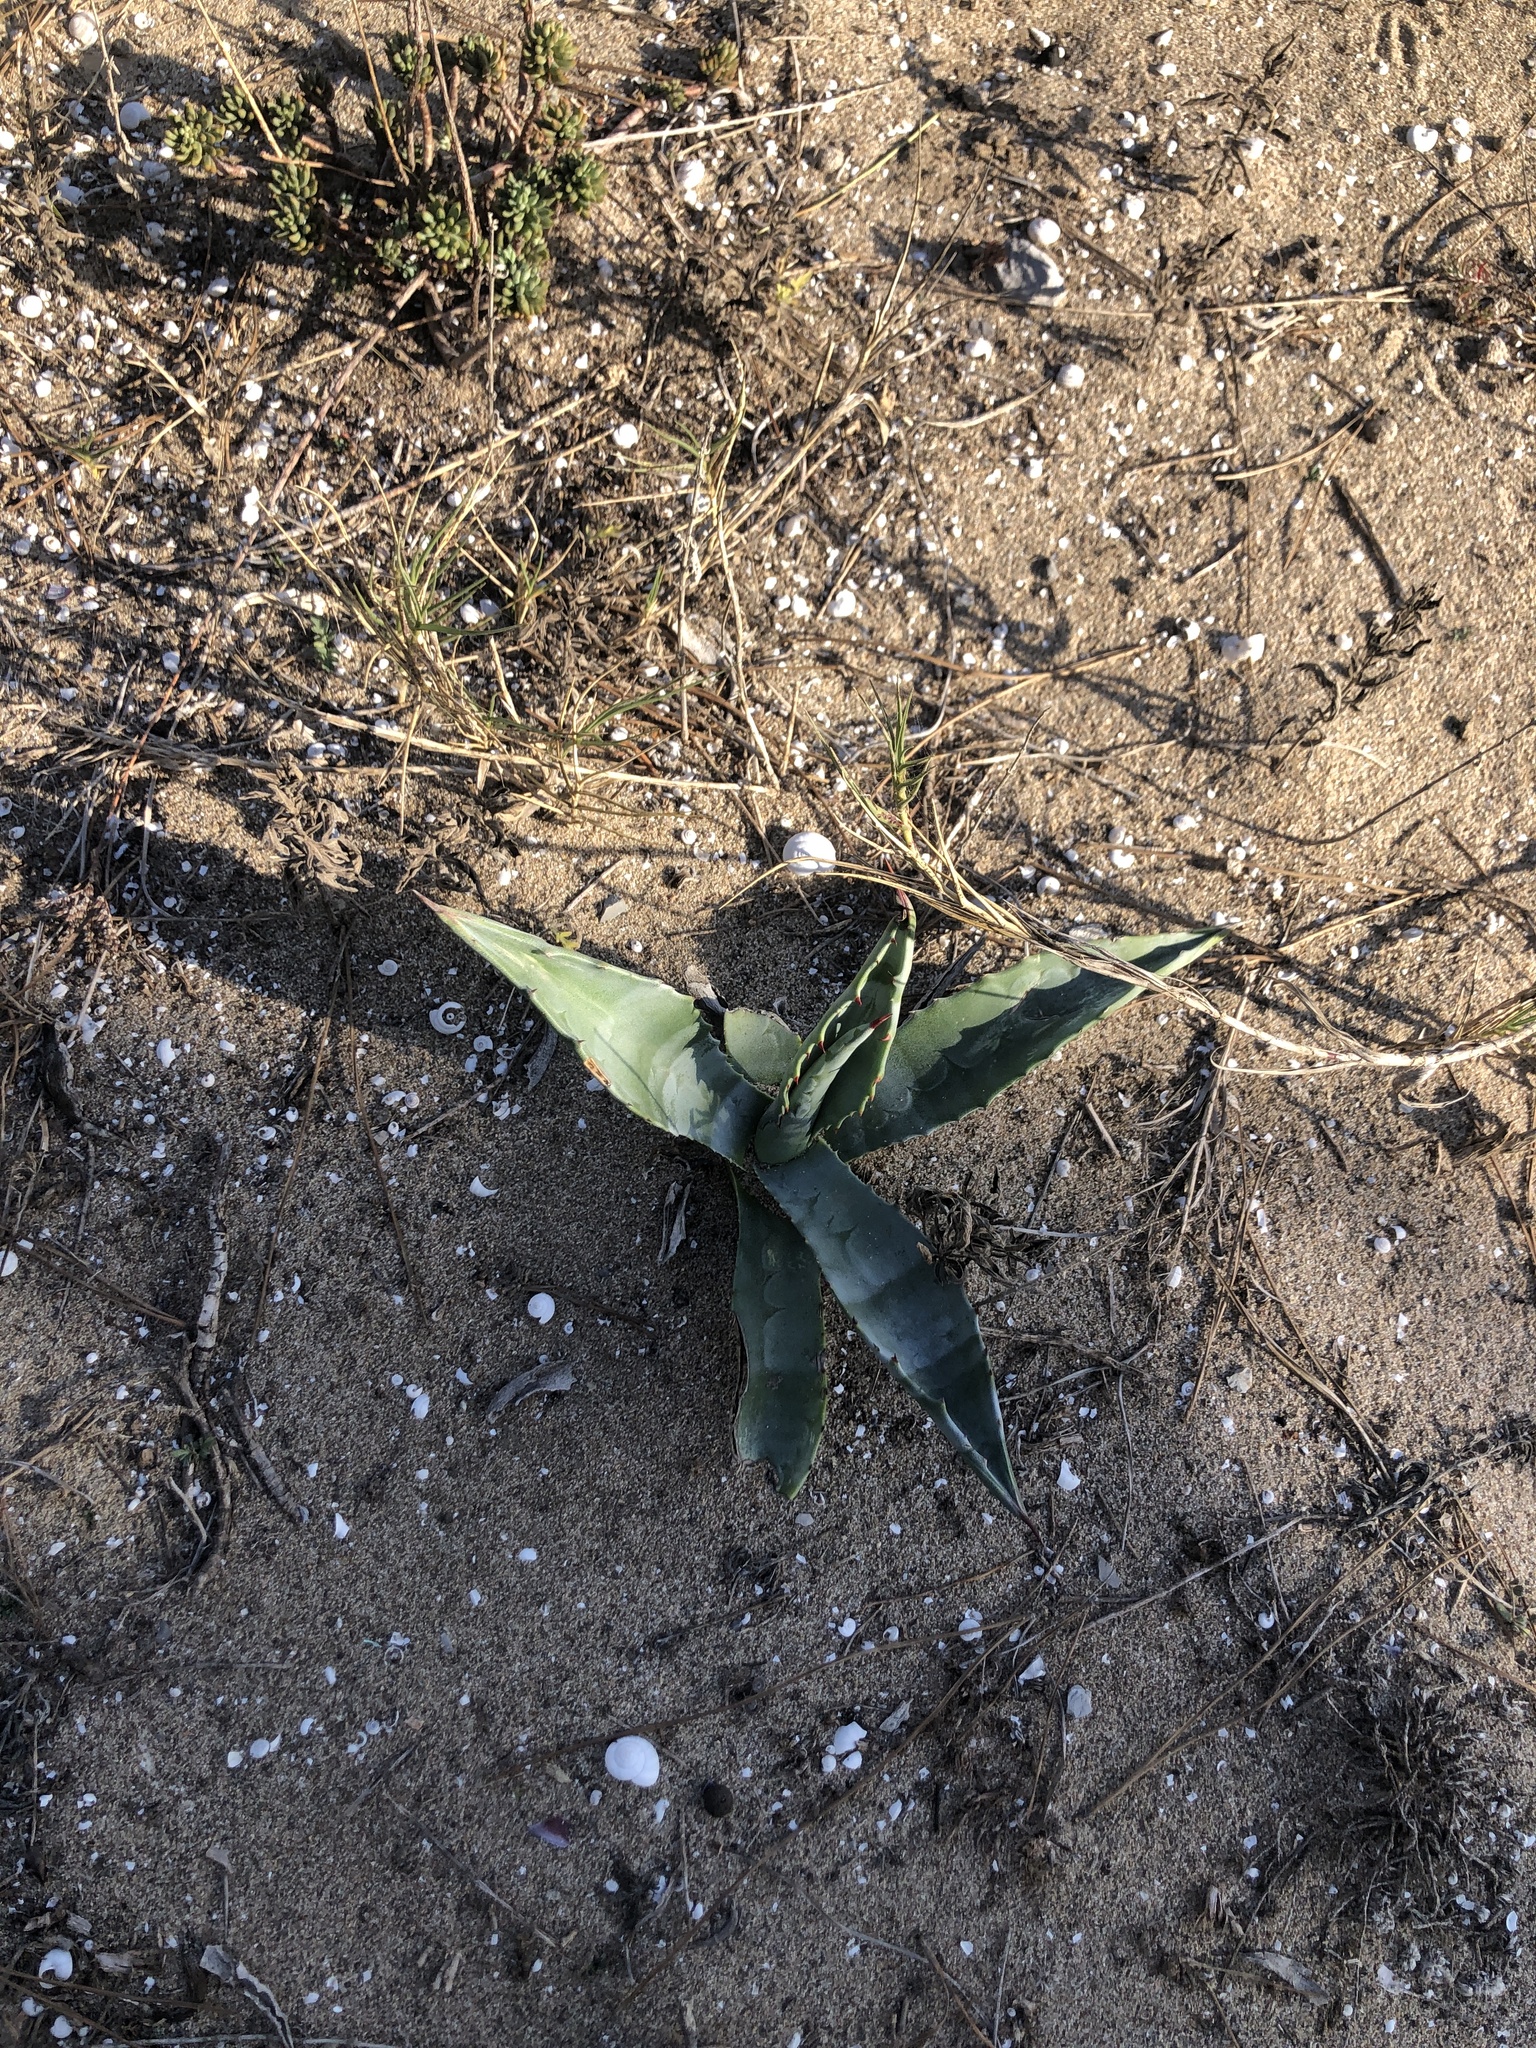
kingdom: Plantae
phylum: Tracheophyta
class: Liliopsida
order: Asparagales
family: Asparagaceae
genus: Agave
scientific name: Agave americana
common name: Centuryplant
